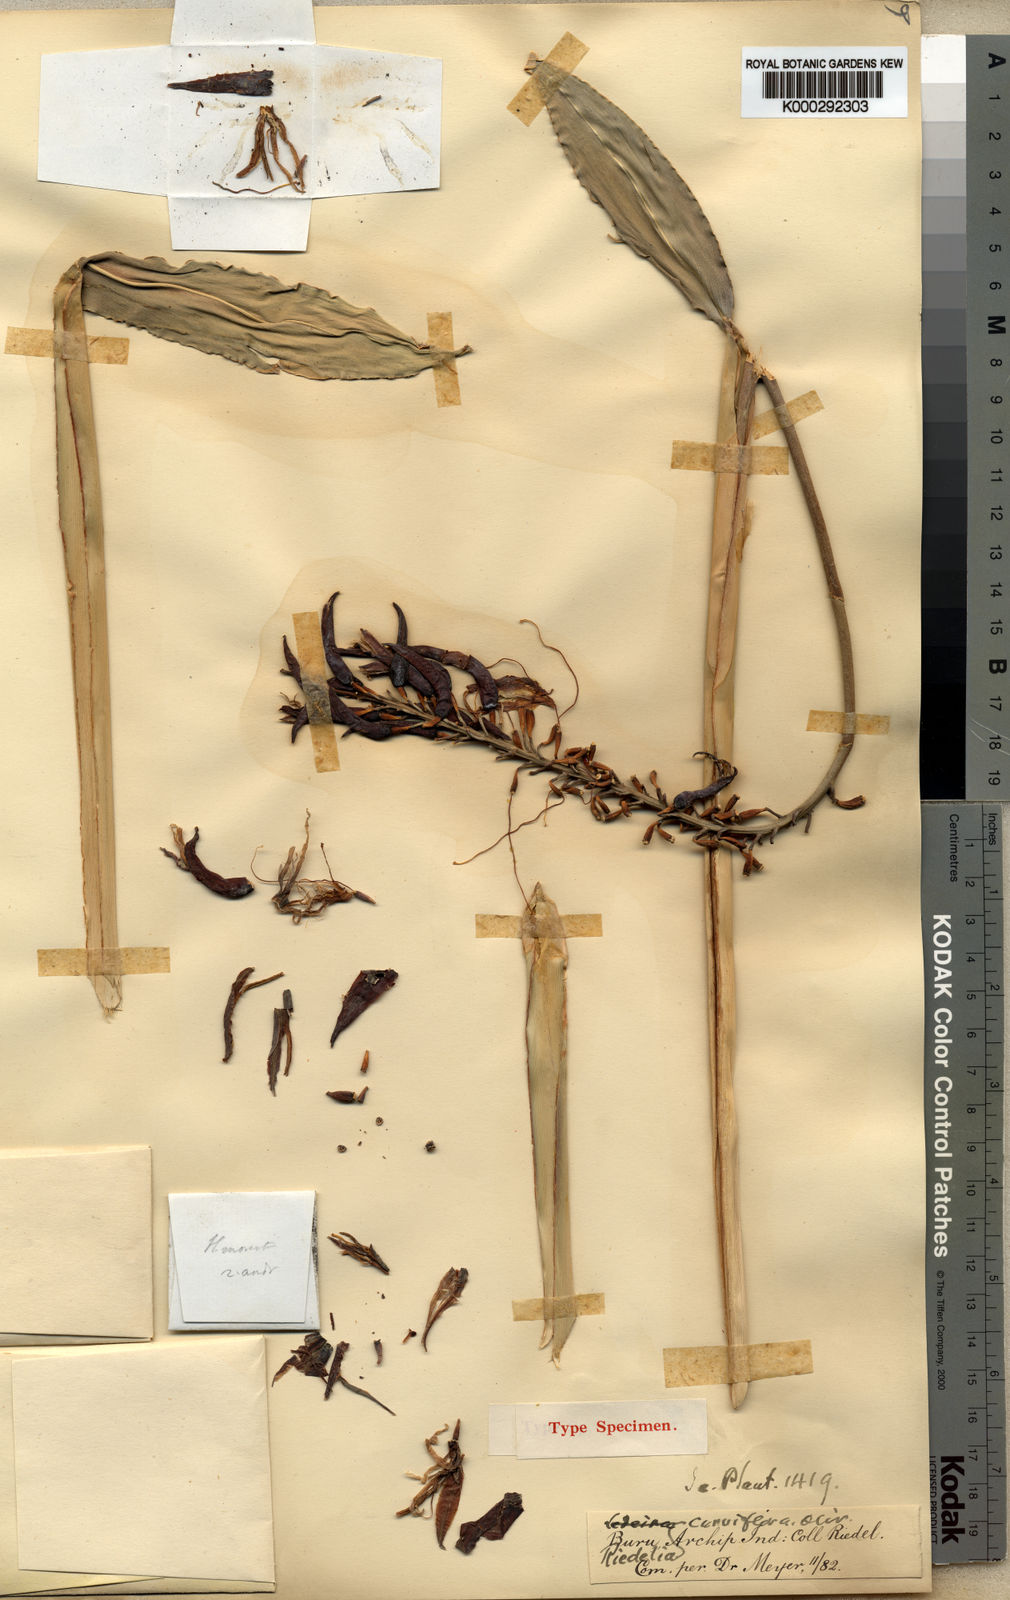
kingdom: Plantae
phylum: Tracheophyta
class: Liliopsida
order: Zingiberales
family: Zingiberaceae
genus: Riedelia
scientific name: Riedelia lanata
